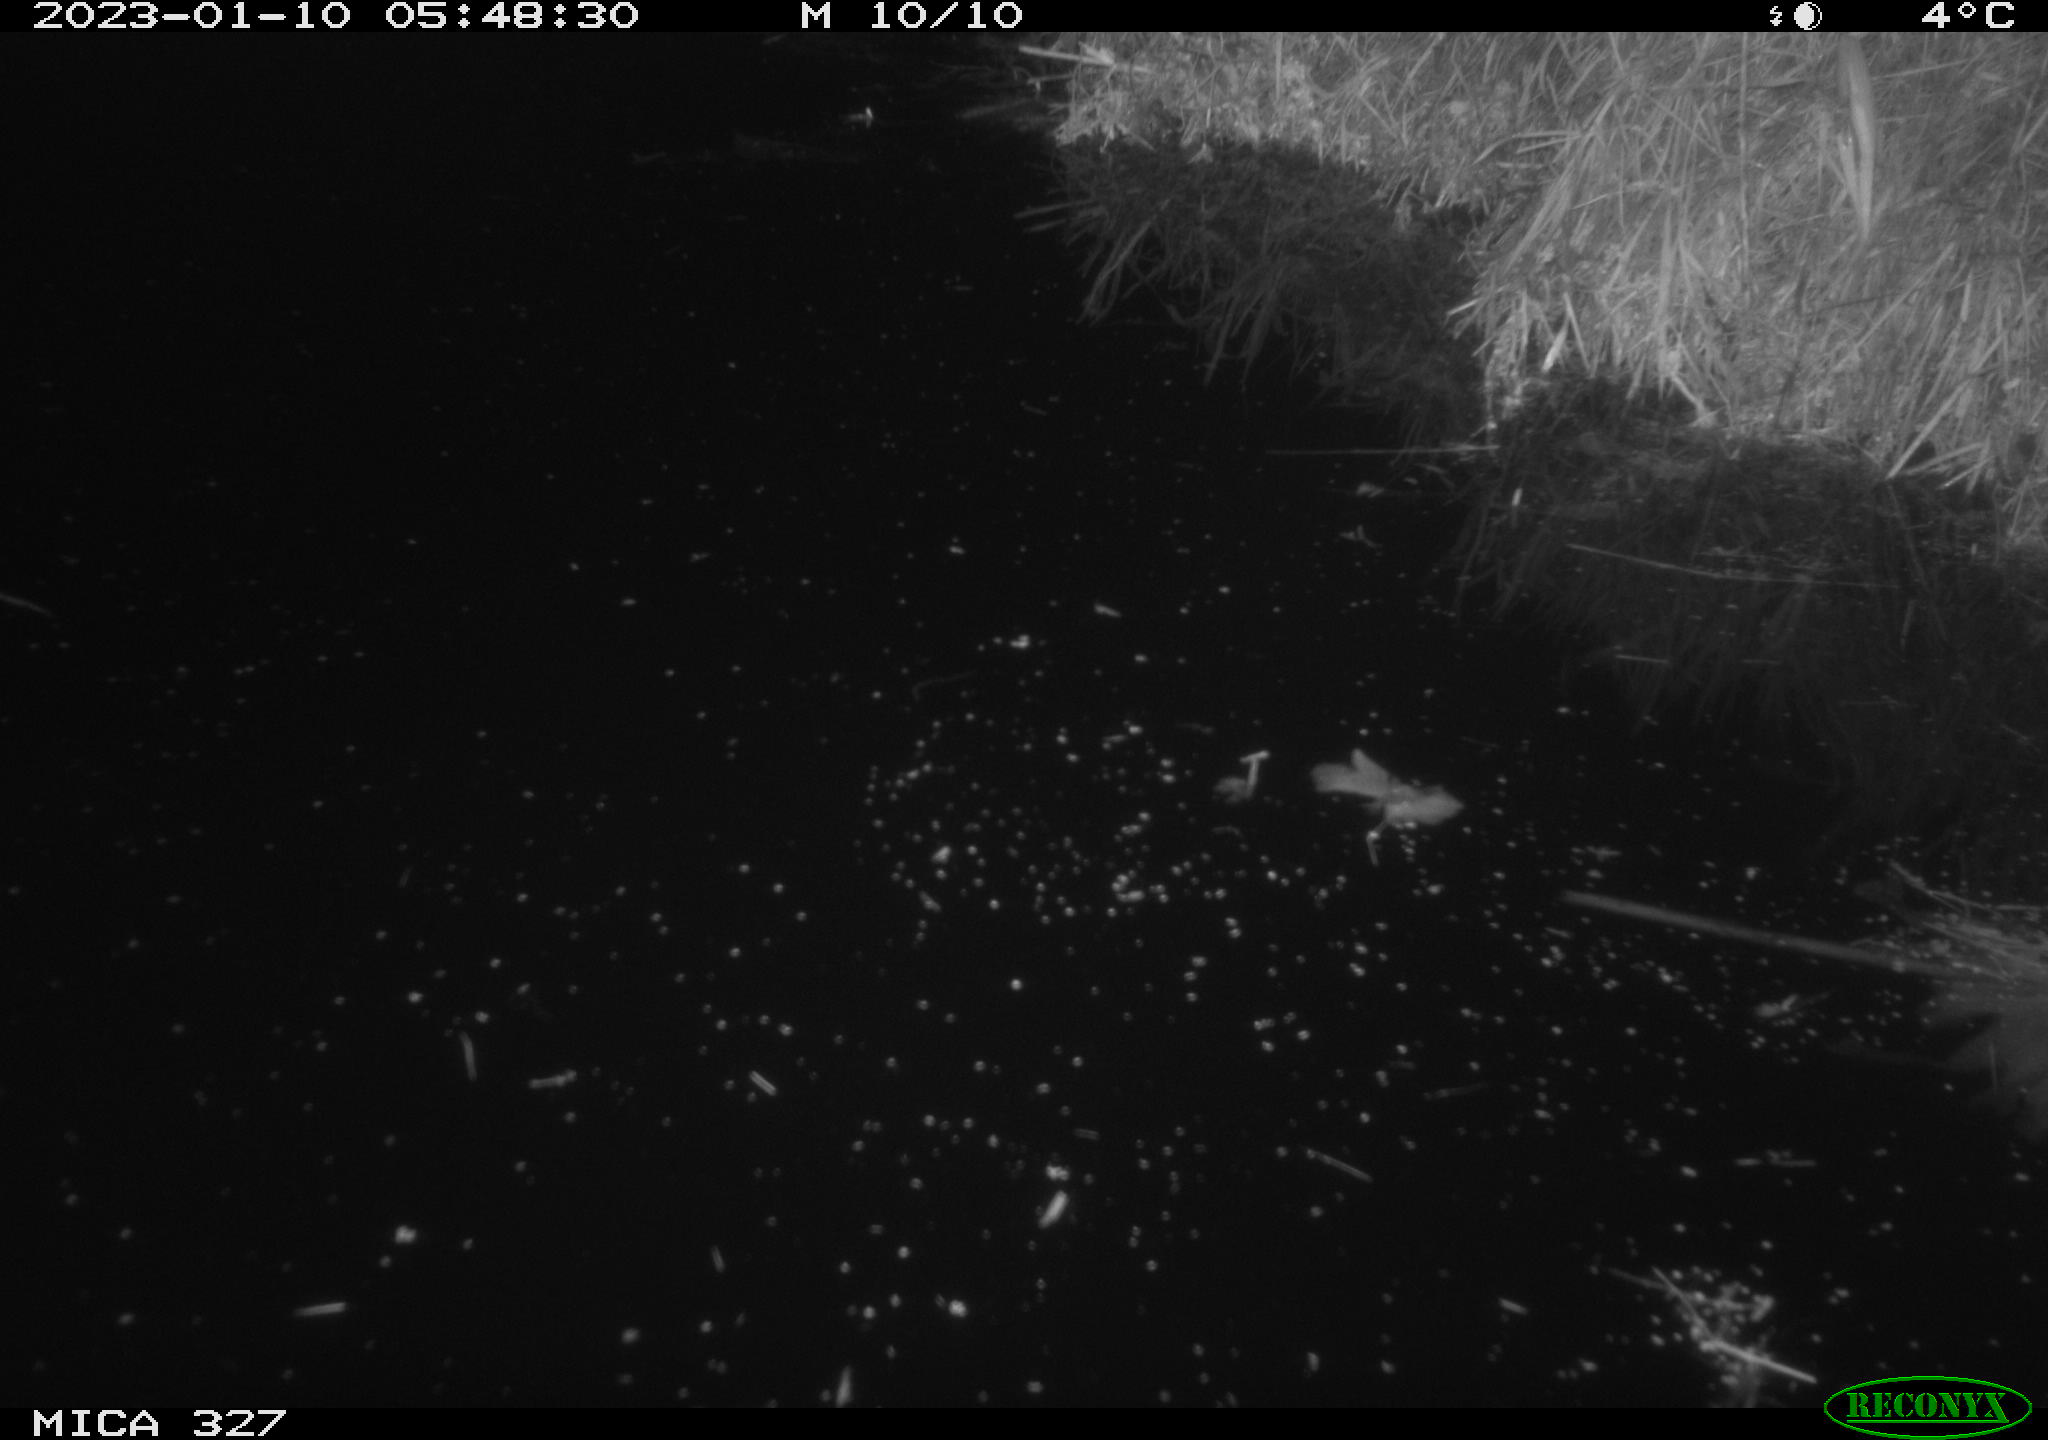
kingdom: Animalia
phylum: Chordata
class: Mammalia
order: Rodentia
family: Cricetidae
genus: Ondatra
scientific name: Ondatra zibethicus
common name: Muskrat
